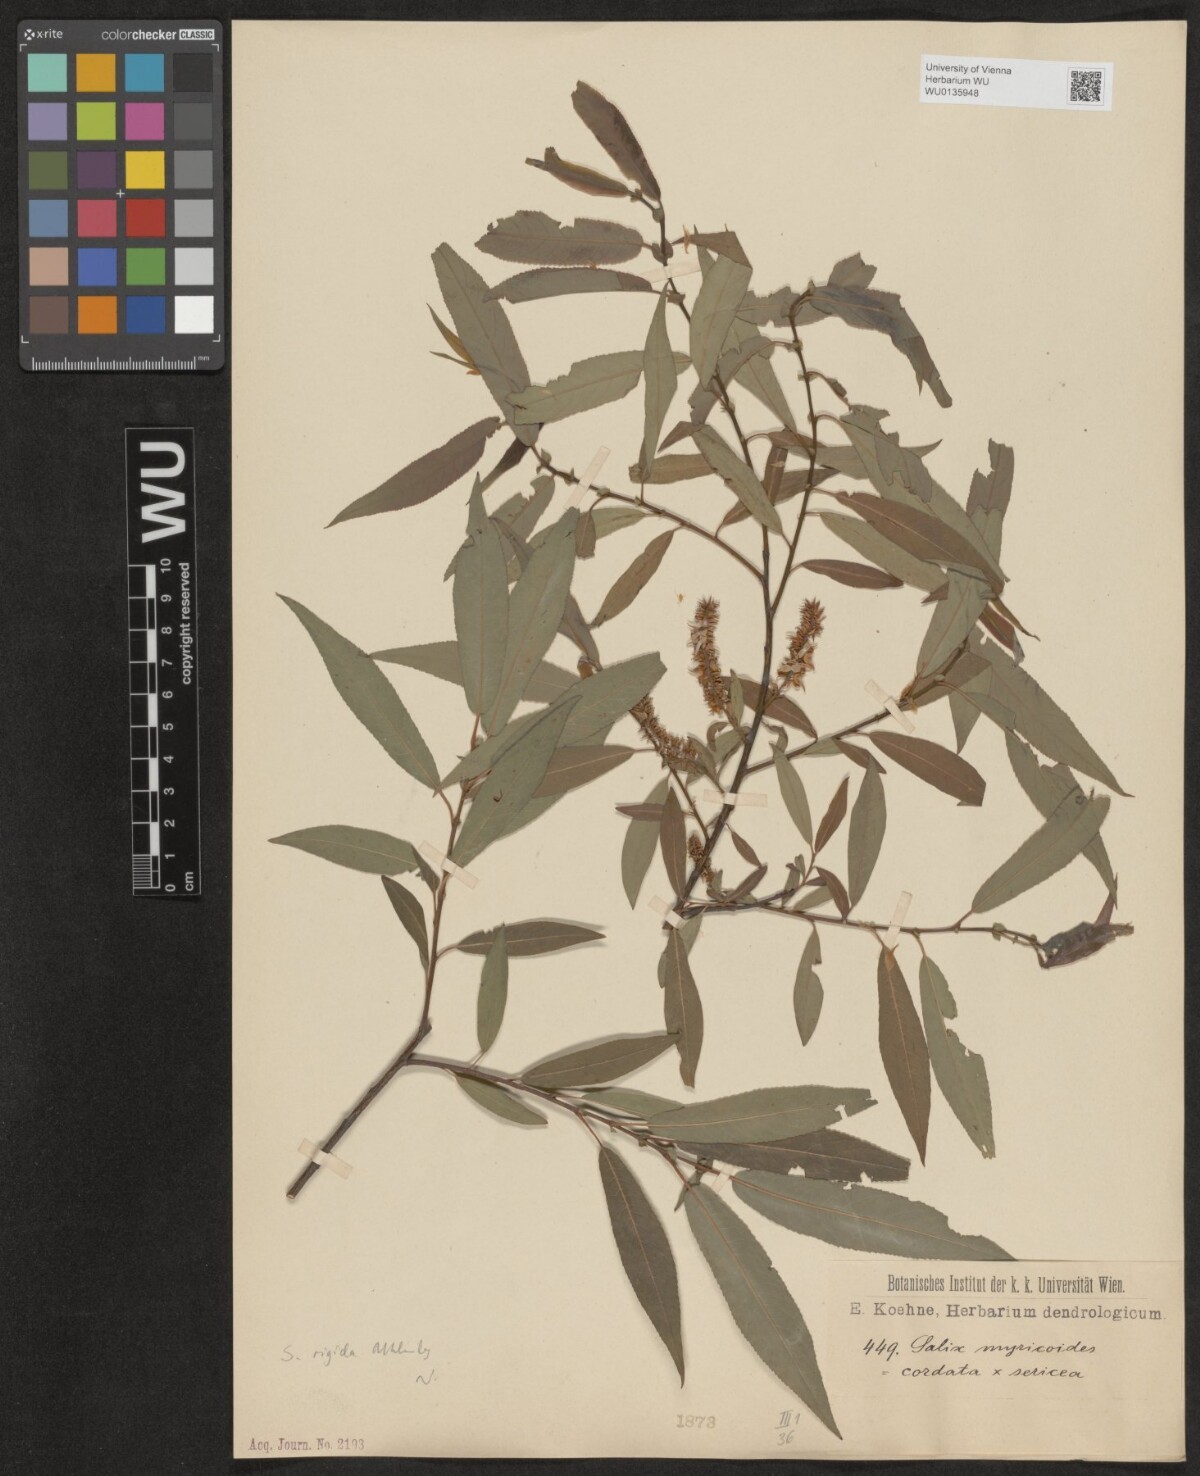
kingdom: Plantae
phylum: Tracheophyta
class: Magnoliopsida
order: Malpighiales
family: Salicaceae
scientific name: Salicaceae
